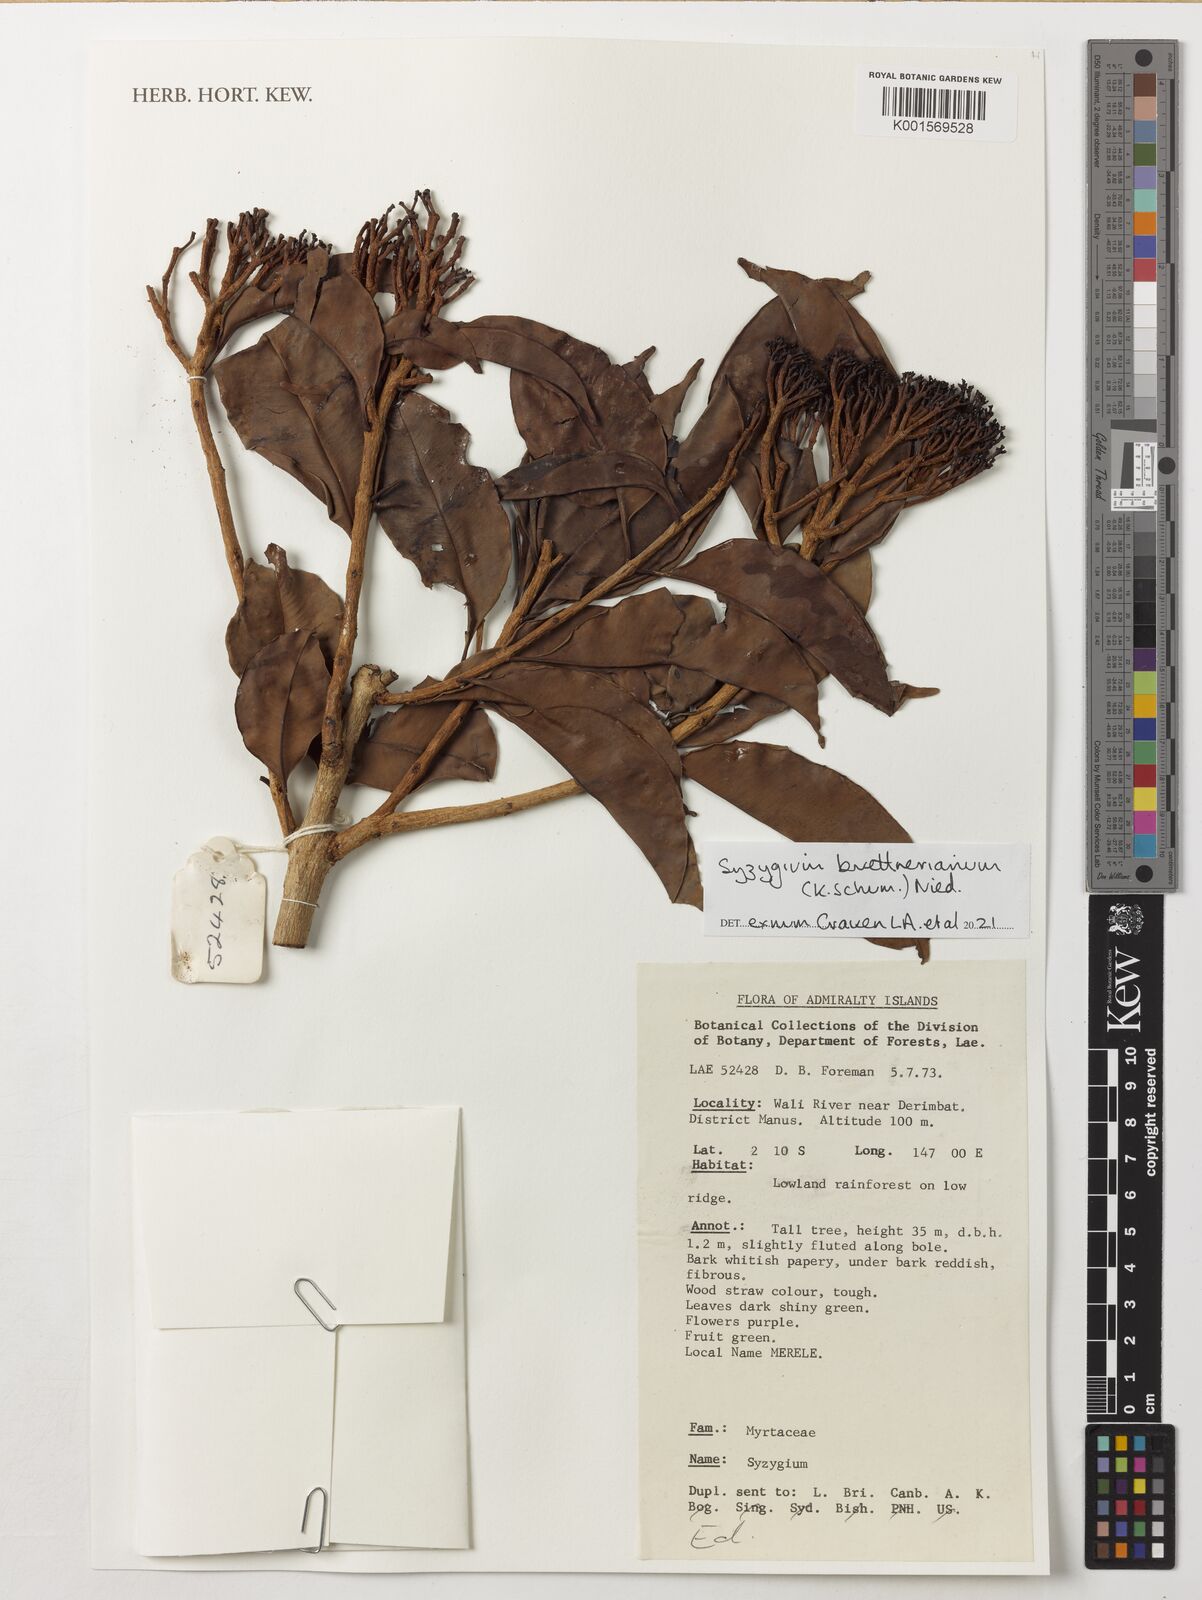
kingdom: Plantae
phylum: Tracheophyta
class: Magnoliopsida
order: Myrtales
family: Myrtaceae
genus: Syzygium
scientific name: Syzygium brittonianum
